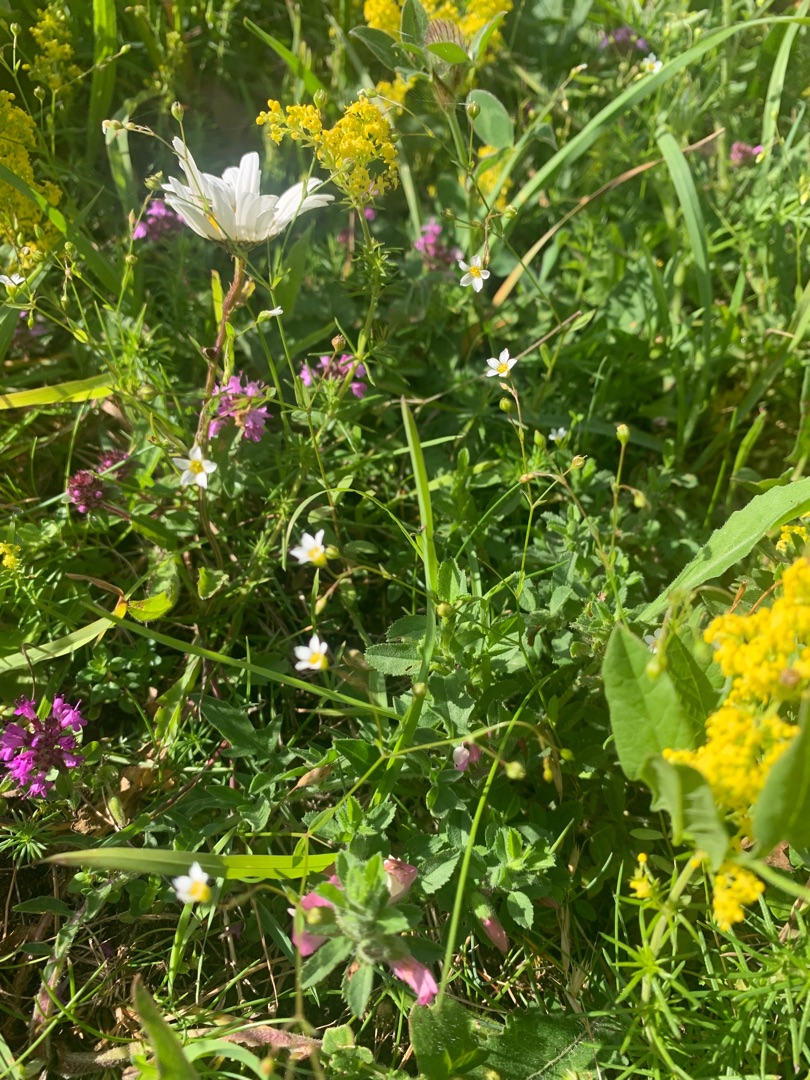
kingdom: Plantae
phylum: Tracheophyta
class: Magnoliopsida
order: Malpighiales
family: Linaceae
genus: Linum
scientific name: Linum catharticum
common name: Vild hør
